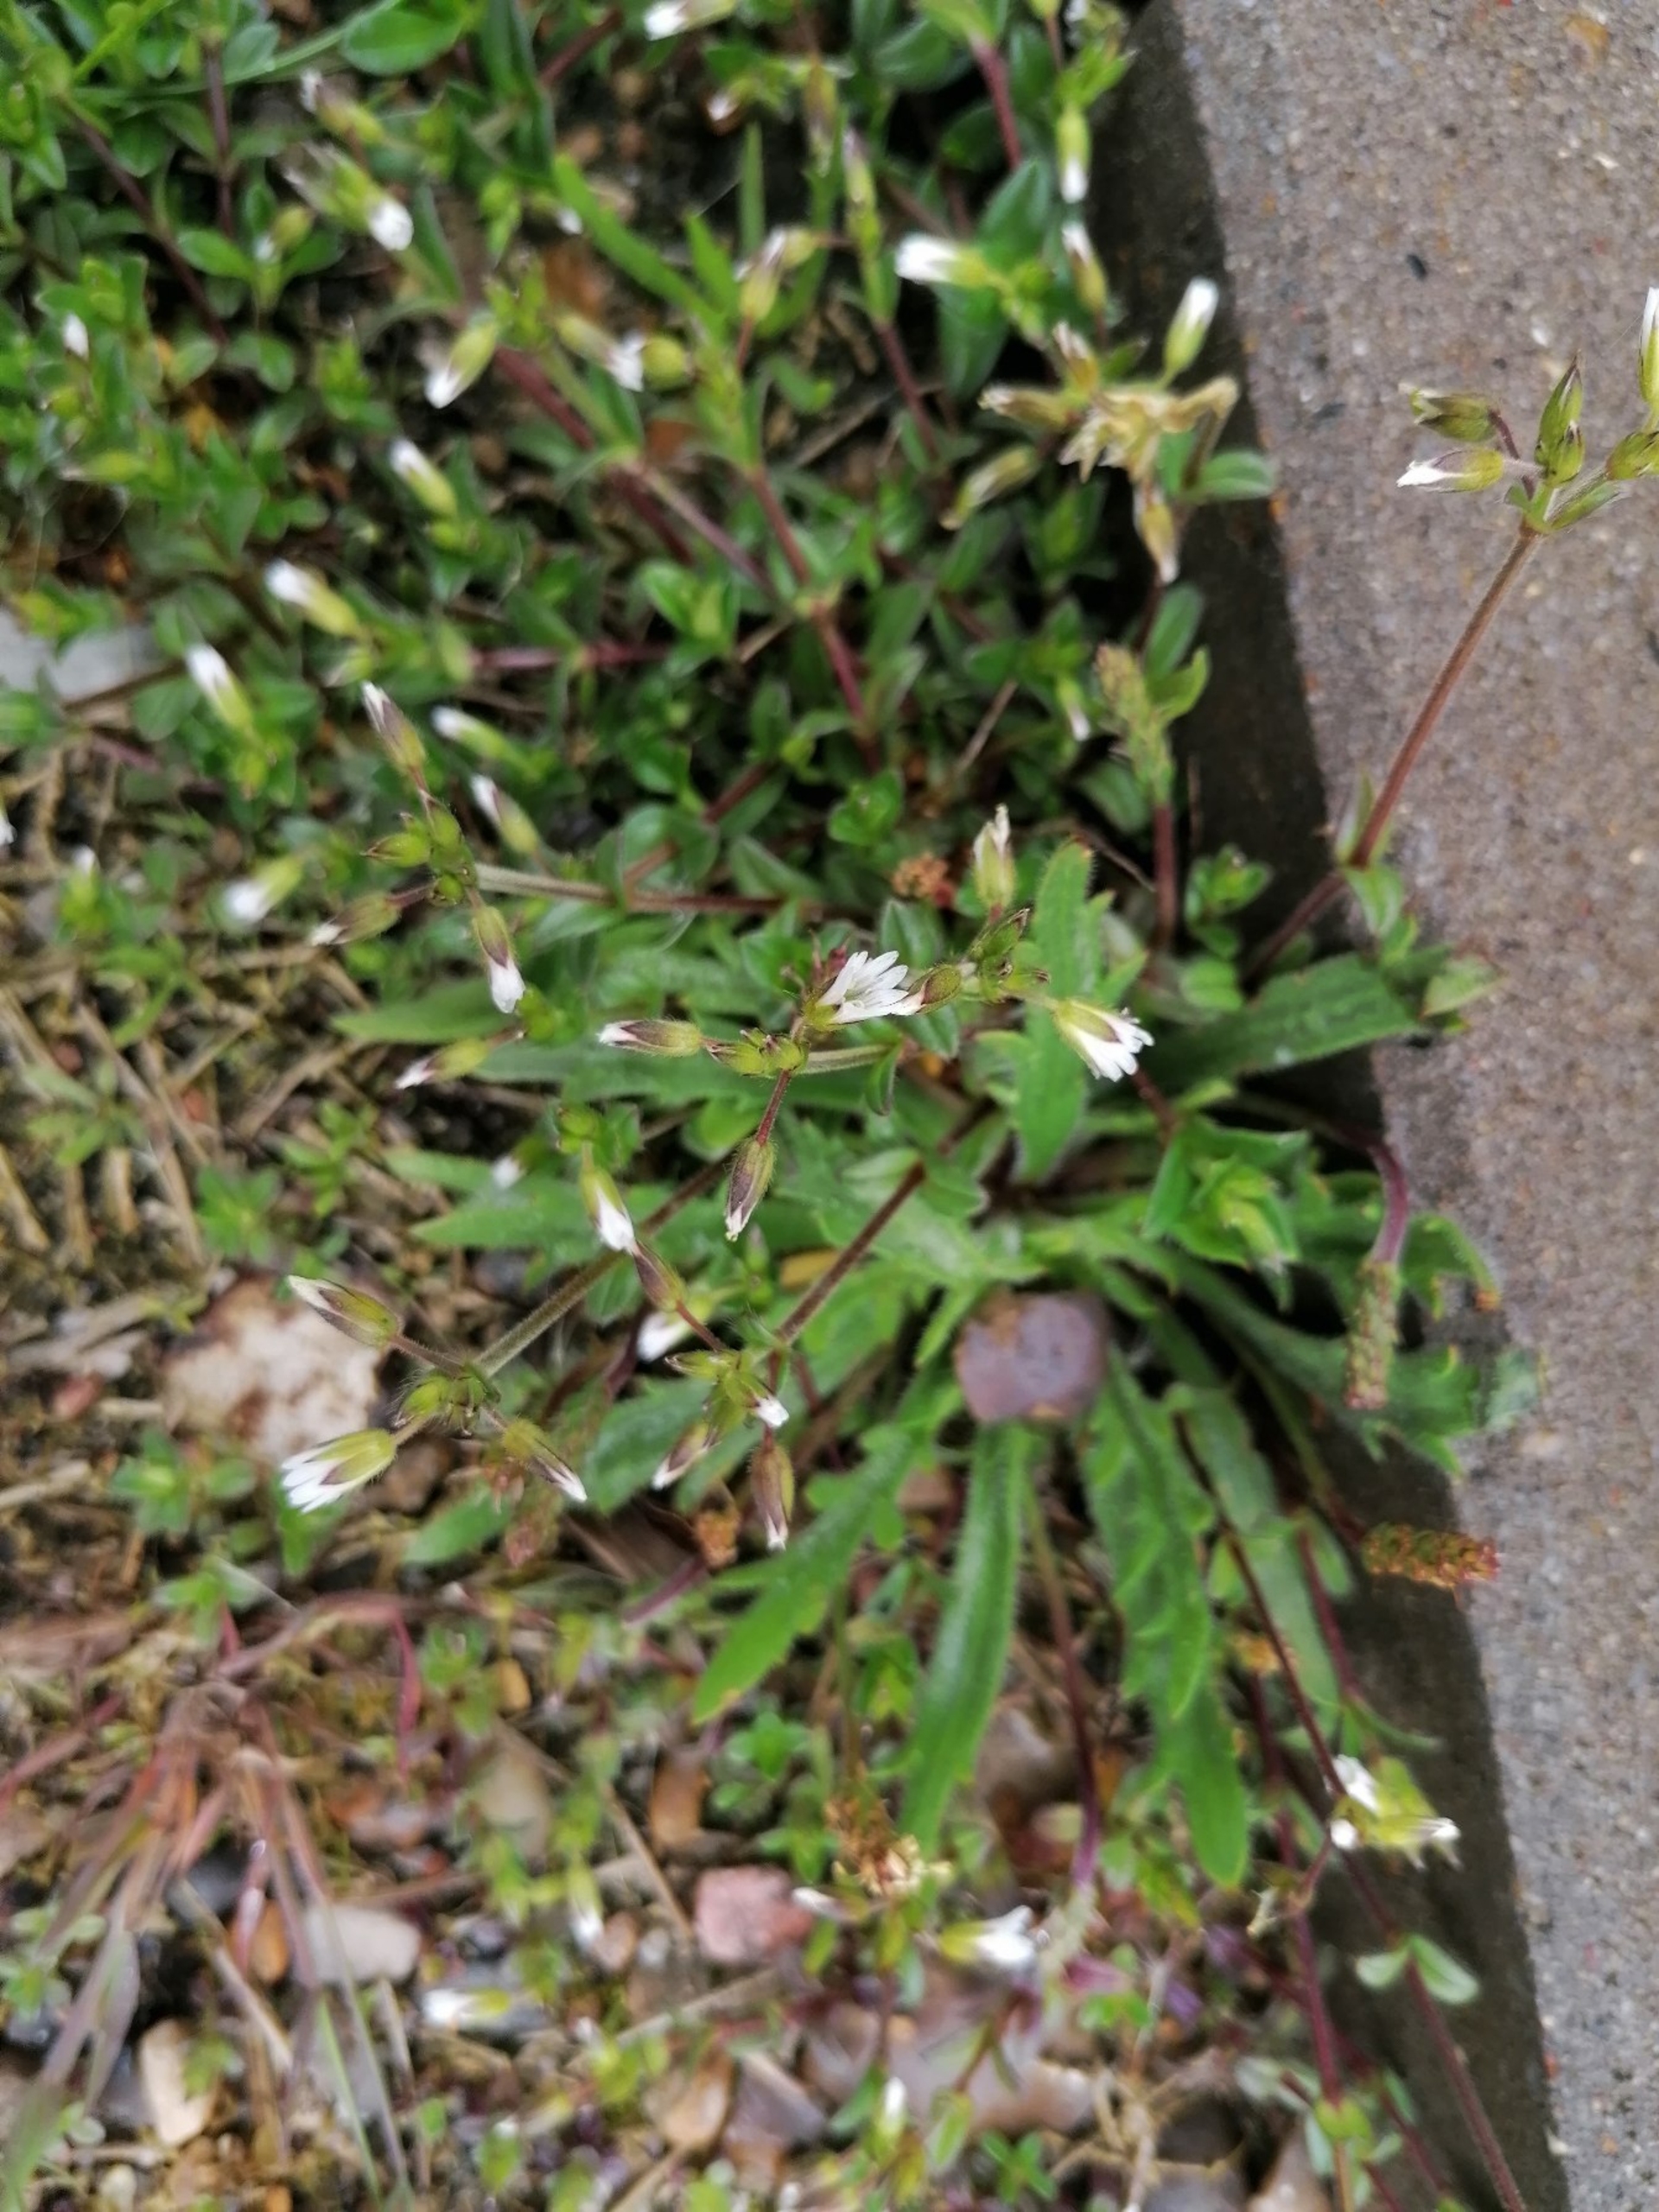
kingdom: Plantae
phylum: Tracheophyta
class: Magnoliopsida
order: Caryophyllales
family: Caryophyllaceae
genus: Cerastium
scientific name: Cerastium diffusum
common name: Firehannet hønsetarm
